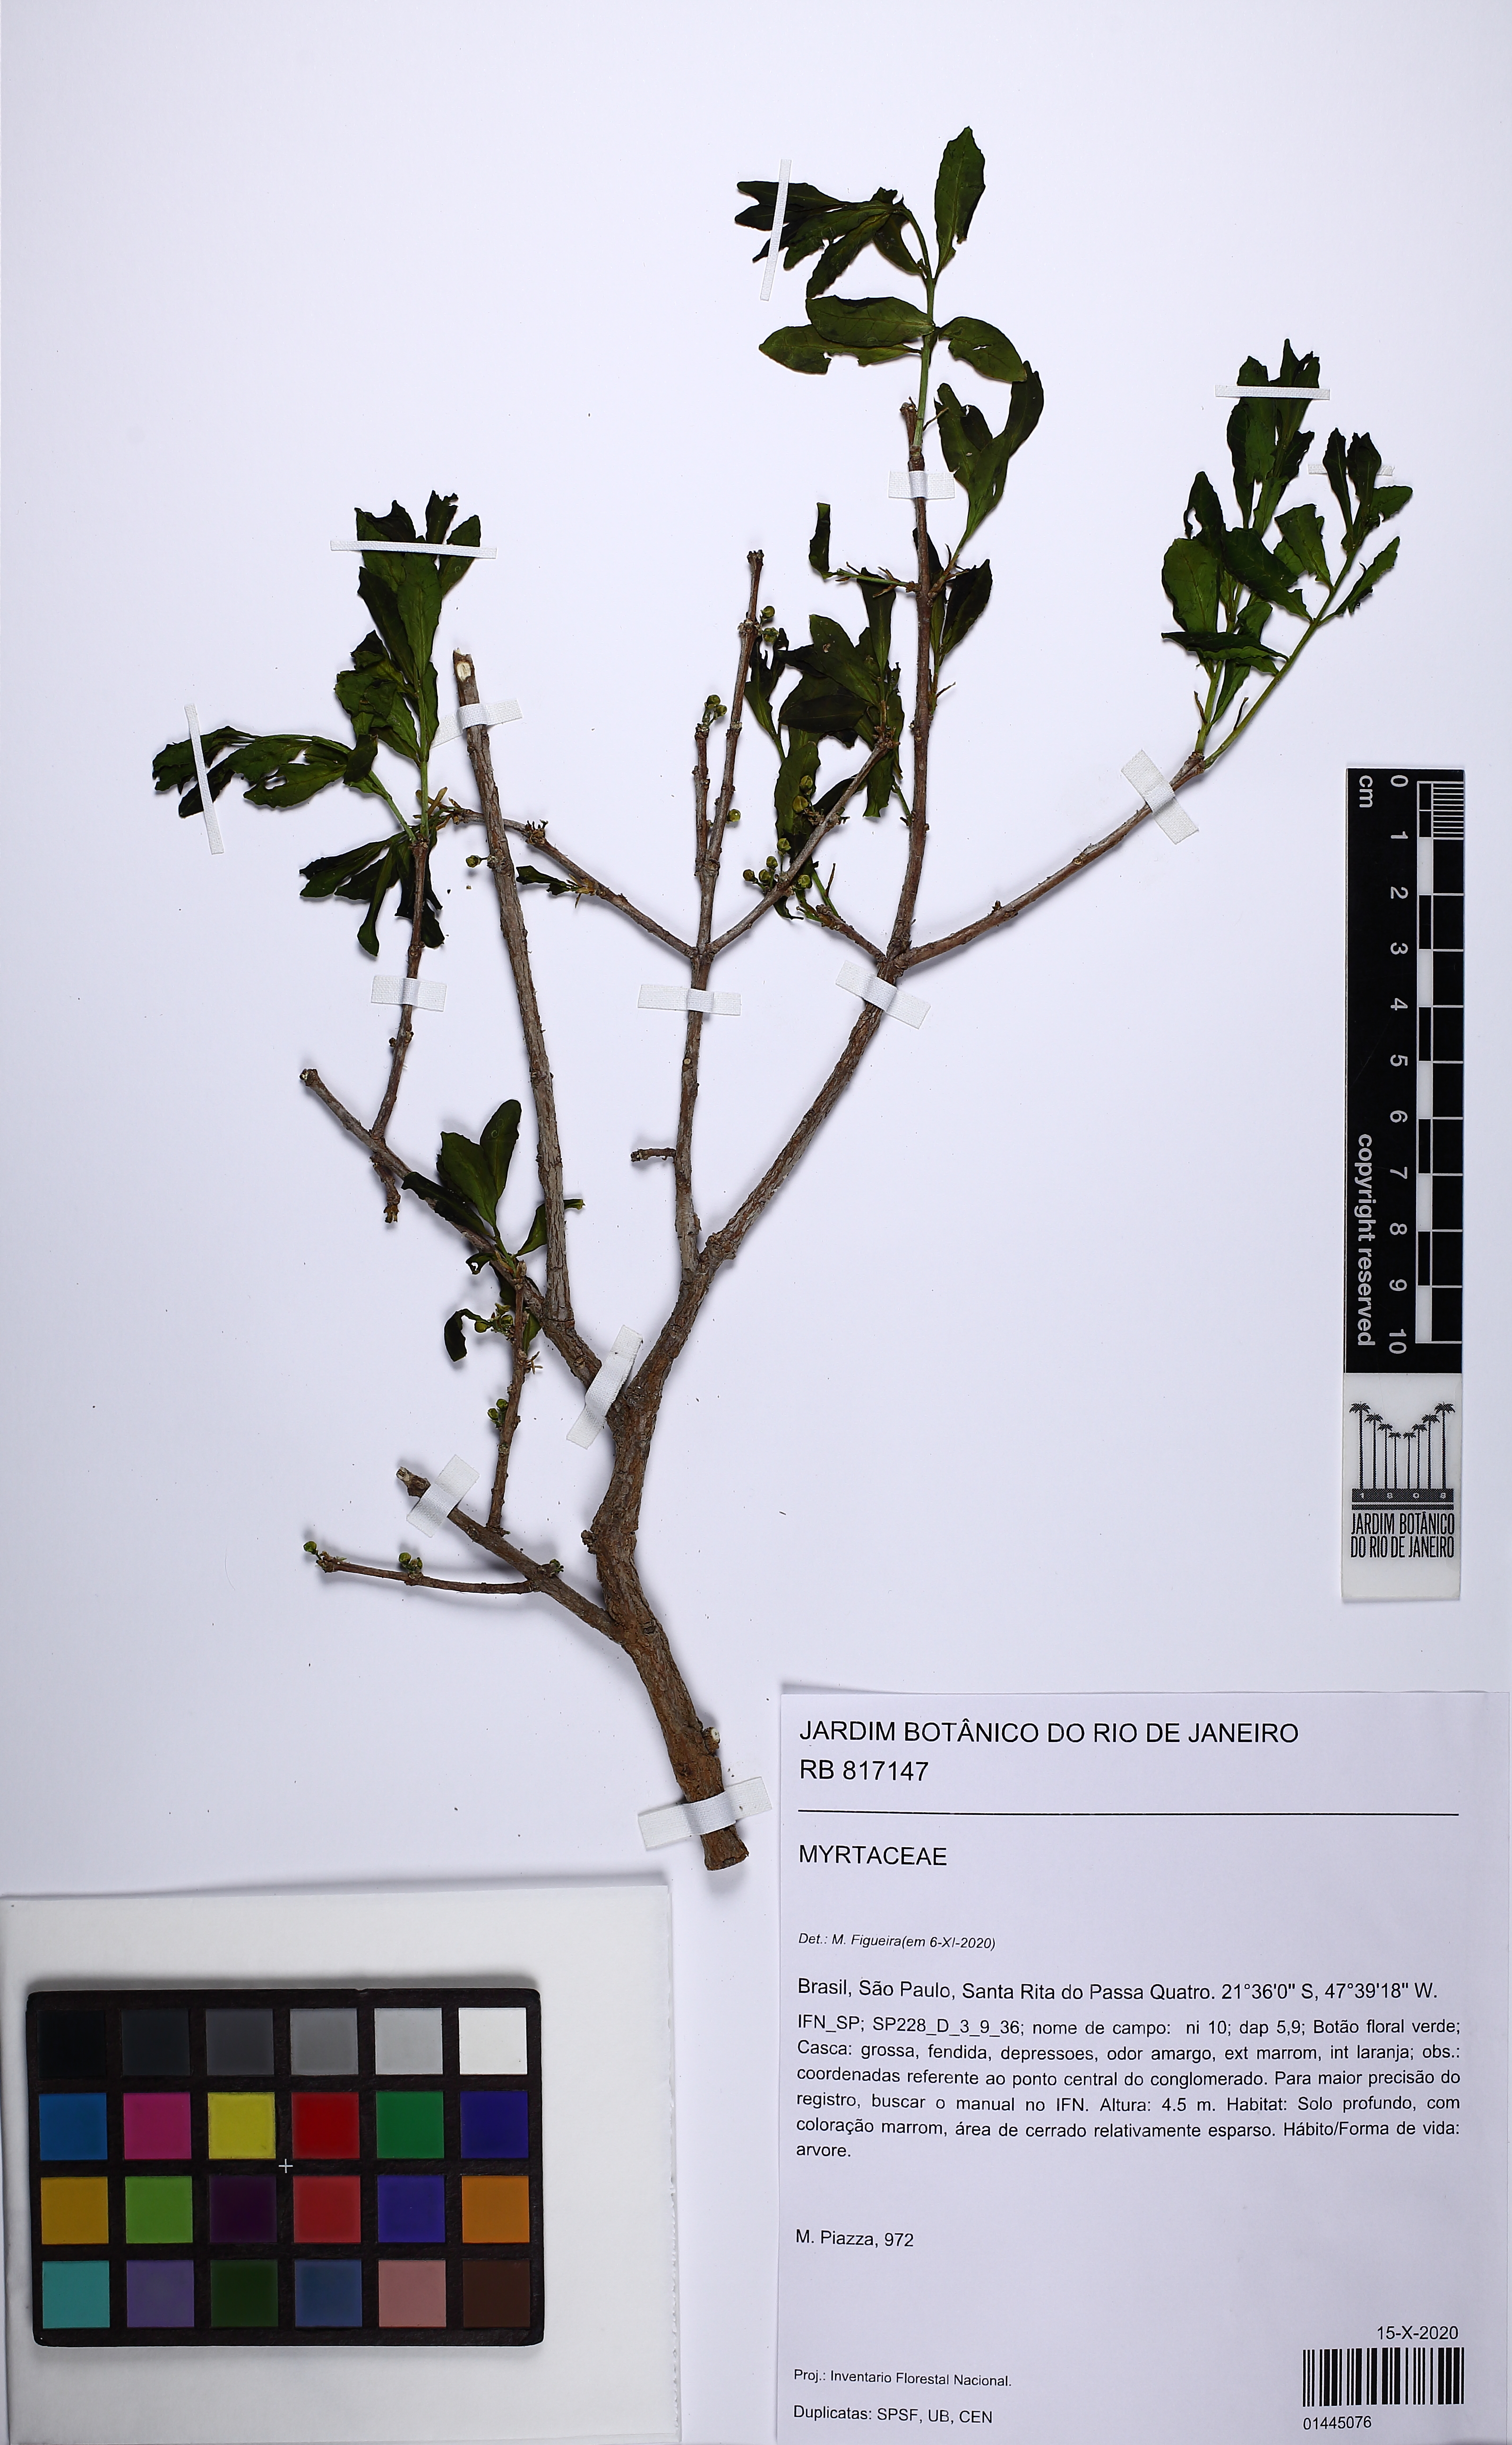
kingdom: Plantae
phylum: Tracheophyta
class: Magnoliopsida
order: Myrtales
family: Myrtaceae
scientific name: Myrtaceae
